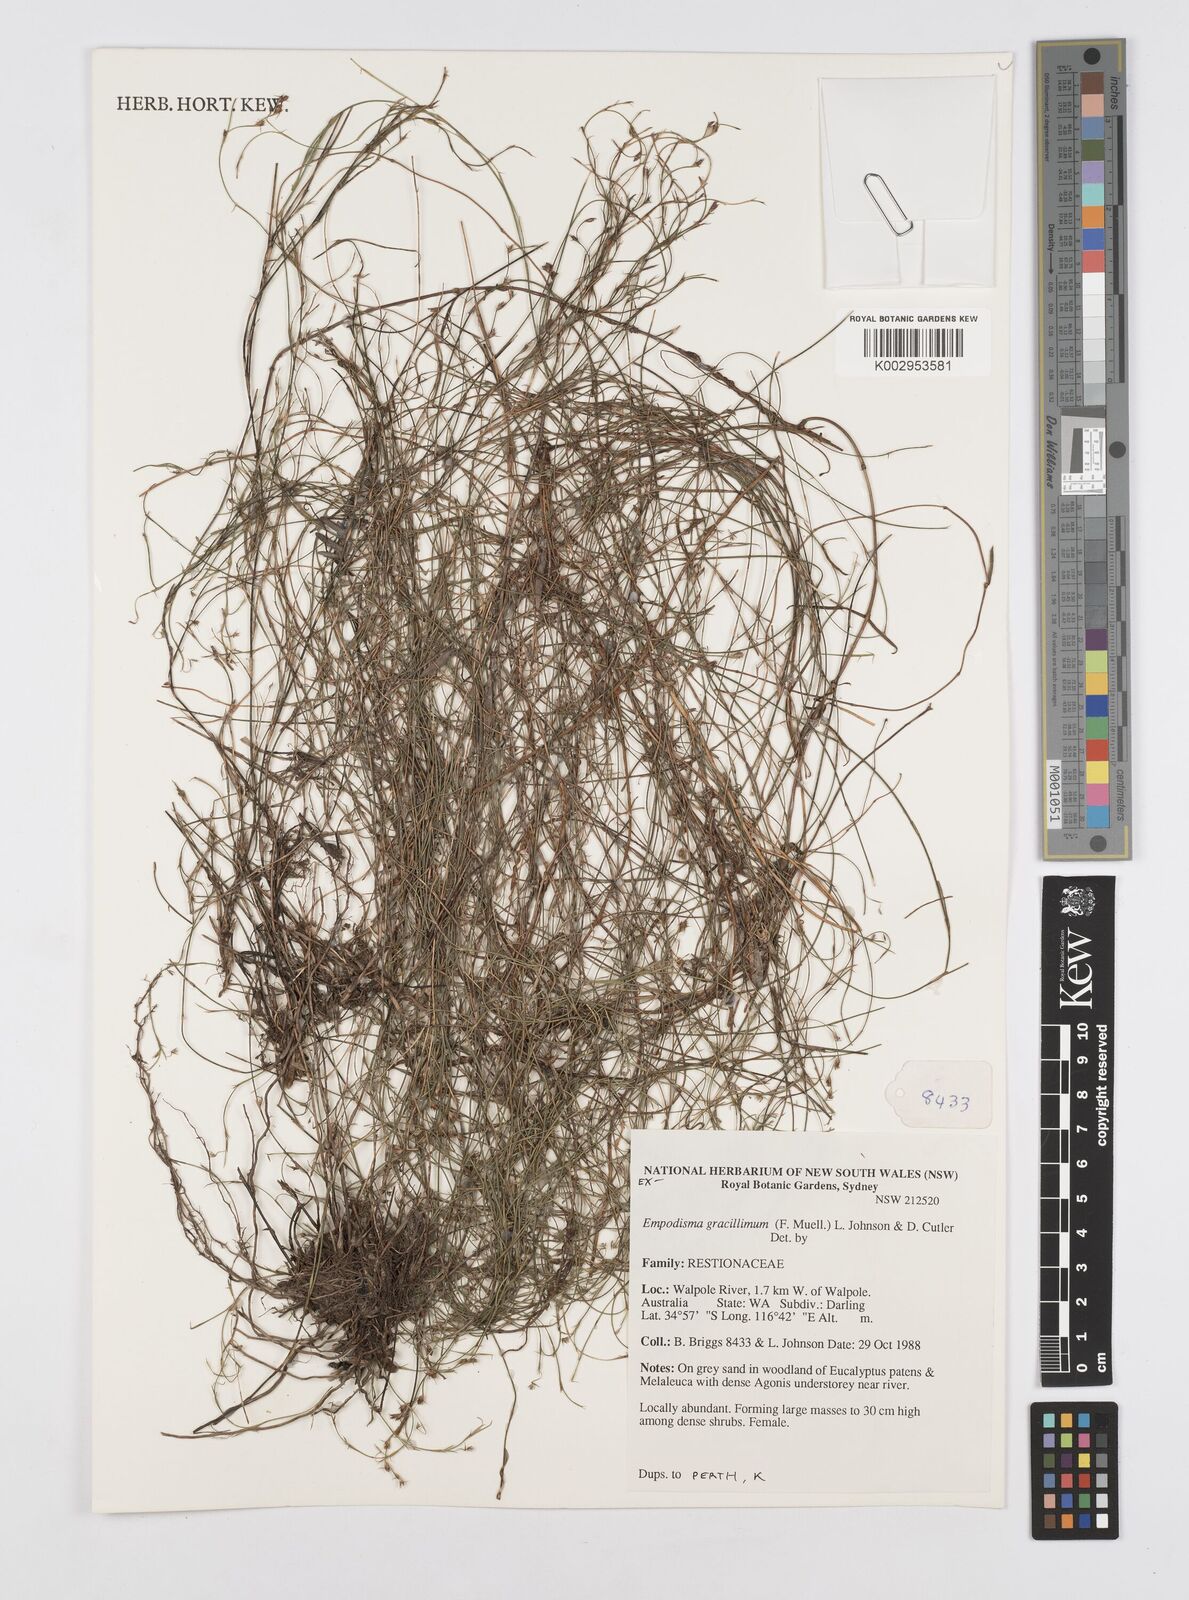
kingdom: Plantae
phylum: Tracheophyta
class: Liliopsida
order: Poales
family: Restionaceae
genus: Empodisma
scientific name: Empodisma gracillimum
